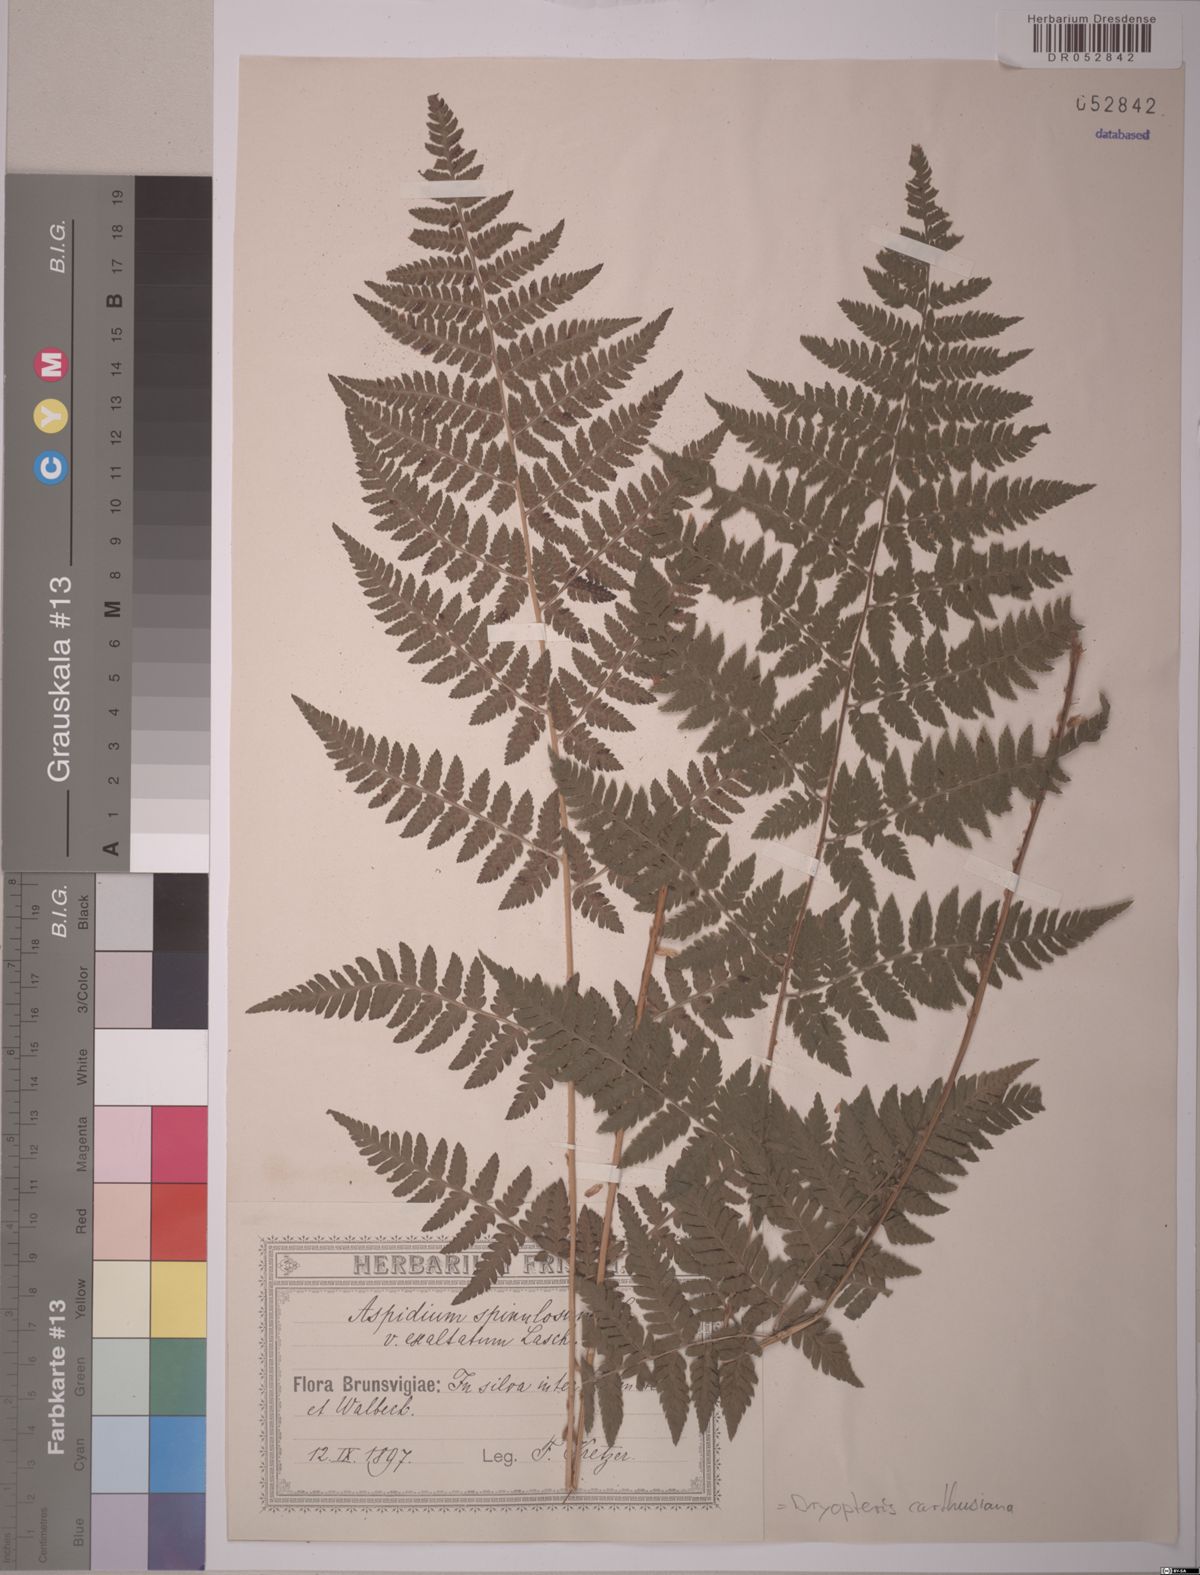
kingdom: Plantae
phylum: Tracheophyta
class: Polypodiopsida
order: Polypodiales
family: Dryopteridaceae
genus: Dryopteris
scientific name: Dryopteris carthusiana
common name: Narrow buckler-fern
